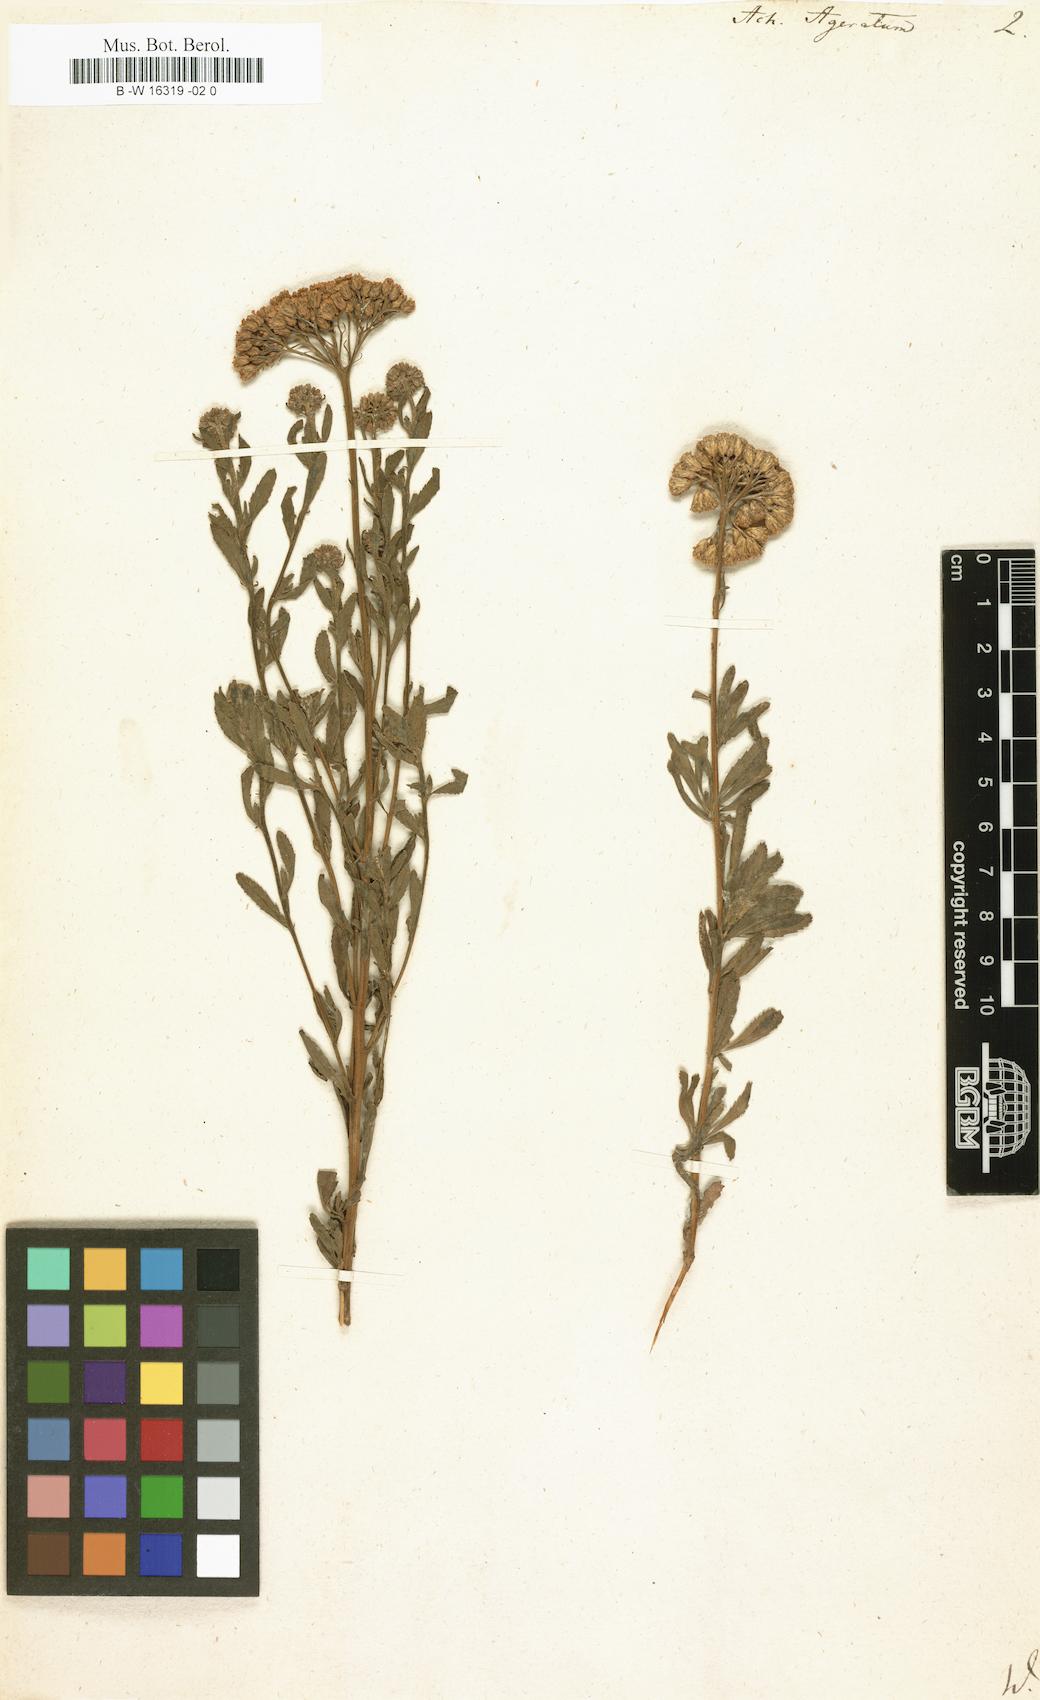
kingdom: Plantae
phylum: Tracheophyta
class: Magnoliopsida
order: Asterales
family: Asteraceae
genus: Achillea
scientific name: Achillea ageratum
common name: Sweet-nancy
